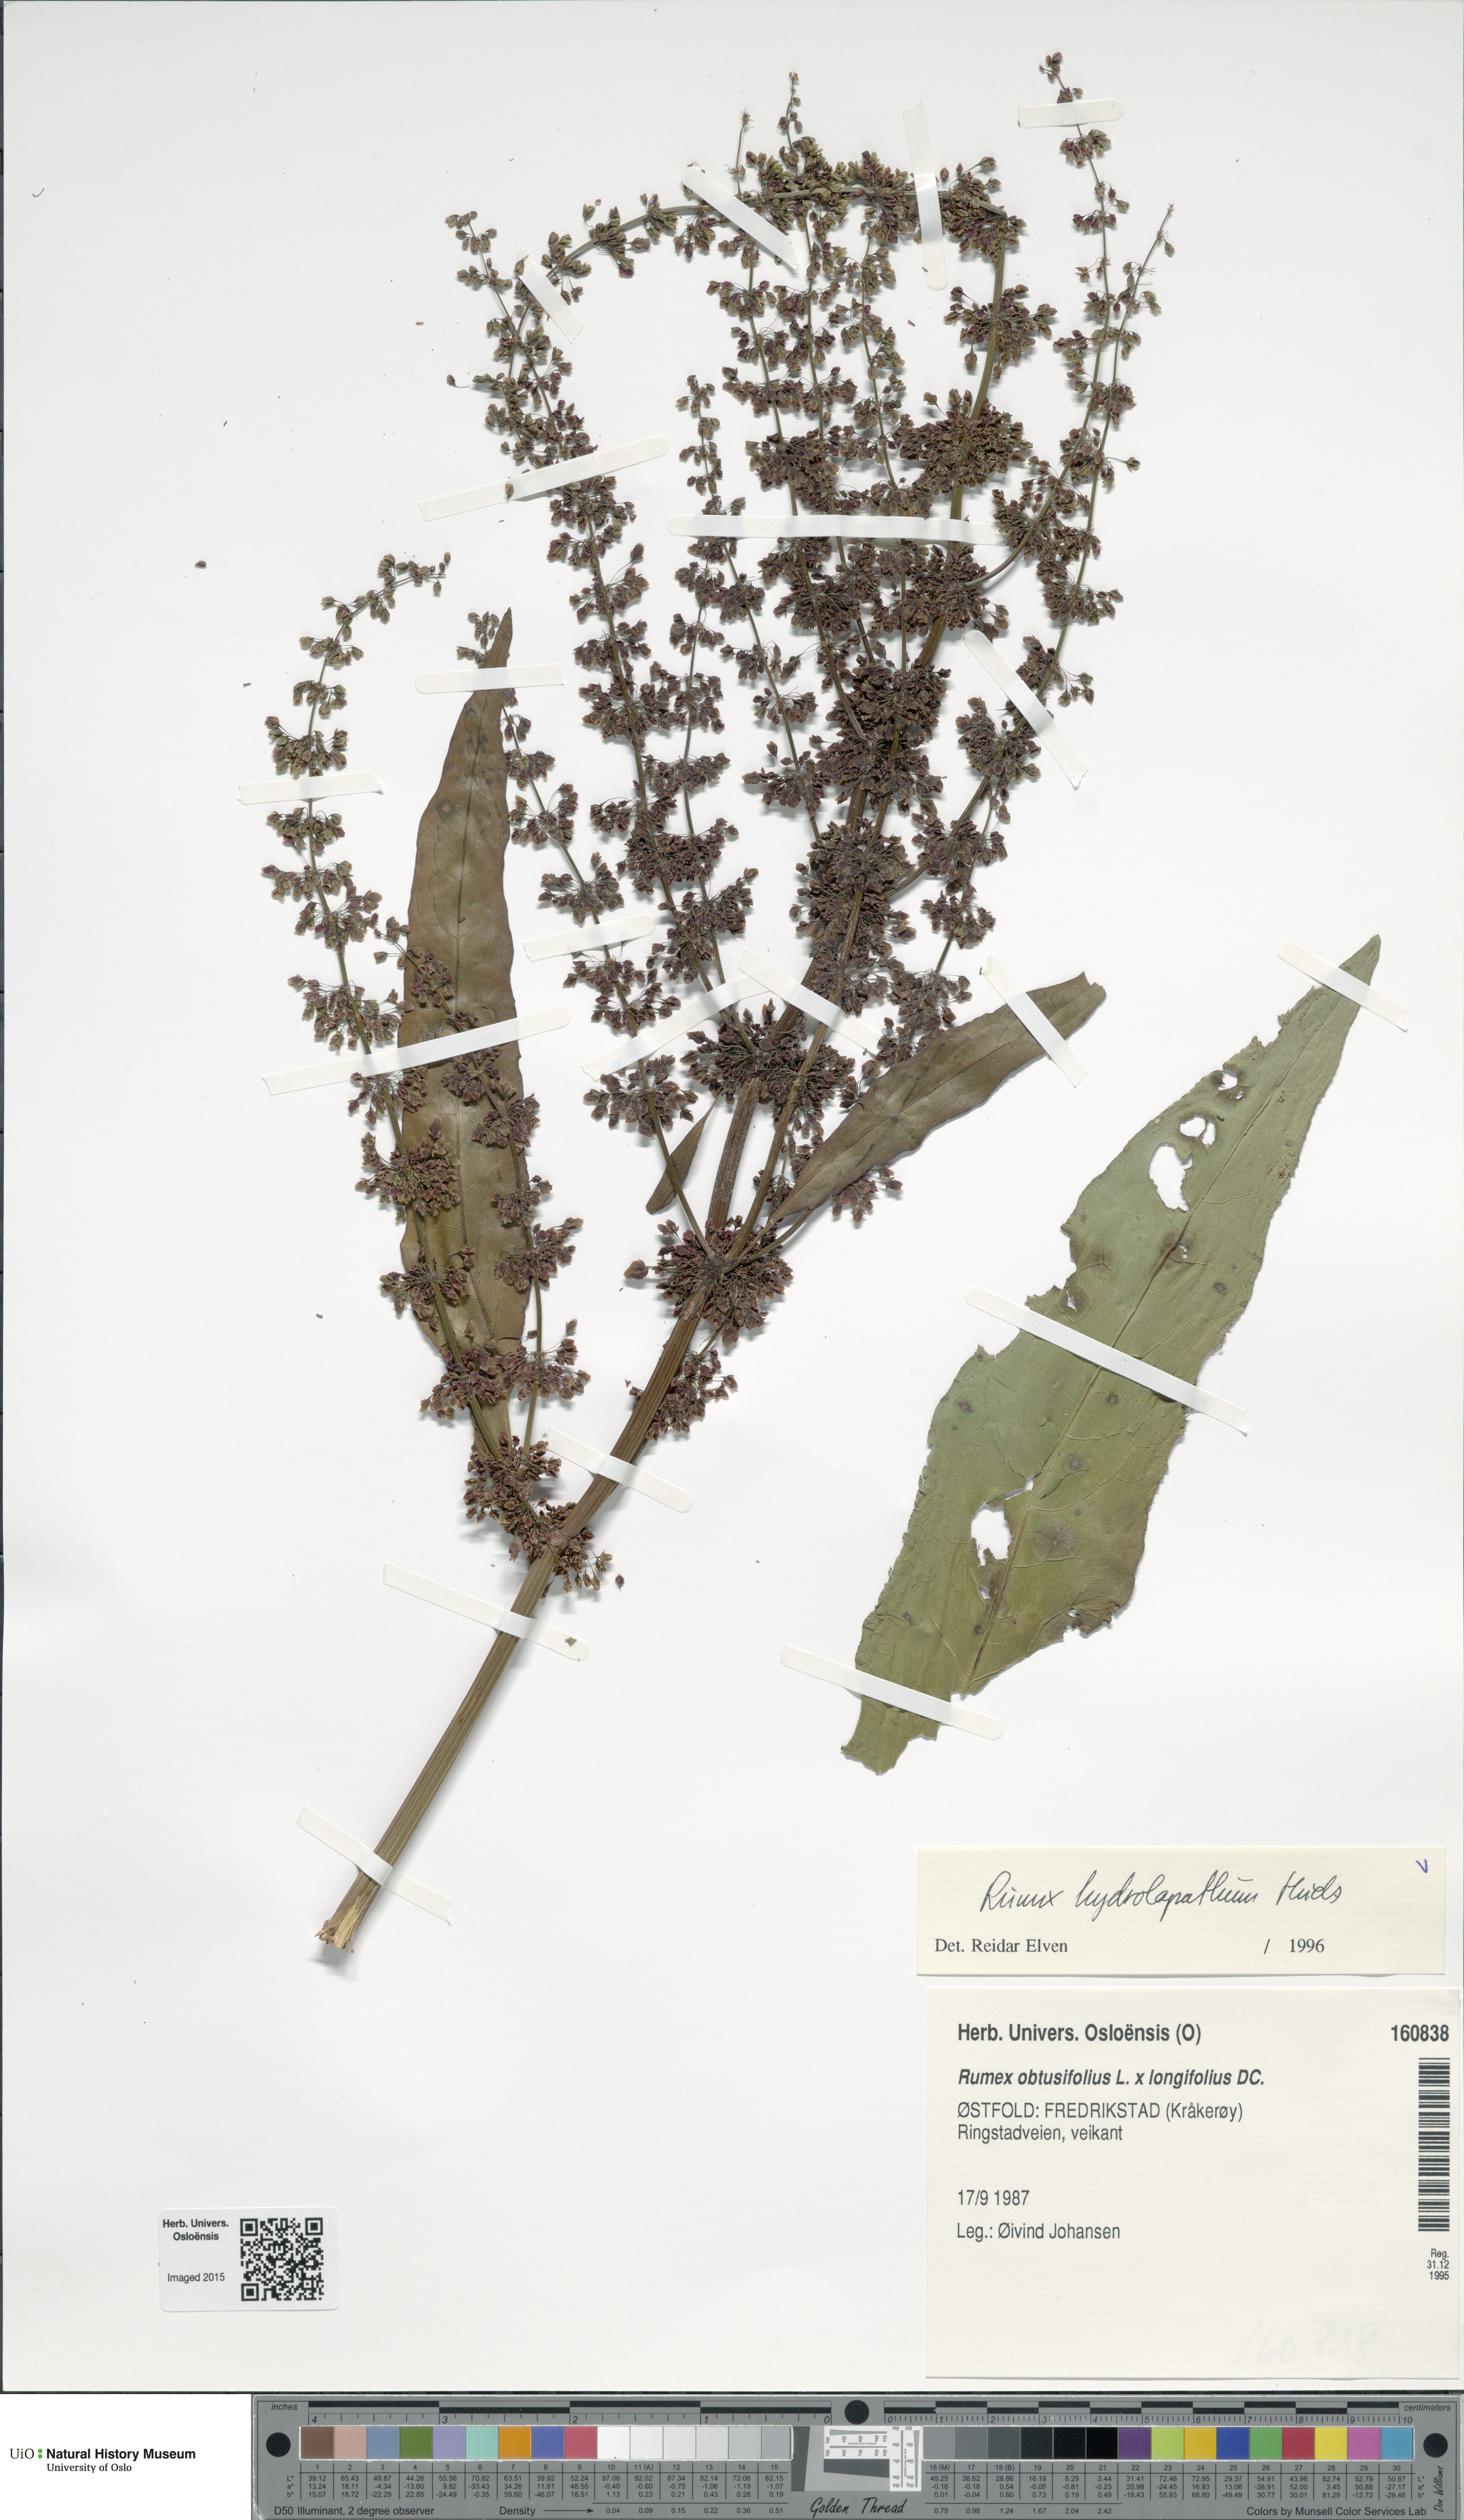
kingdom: Plantae
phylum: Tracheophyta
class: Magnoliopsida
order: Caryophyllales
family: Polygonaceae
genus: Rumex
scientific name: Rumex hydrolapathum
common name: Water dock
